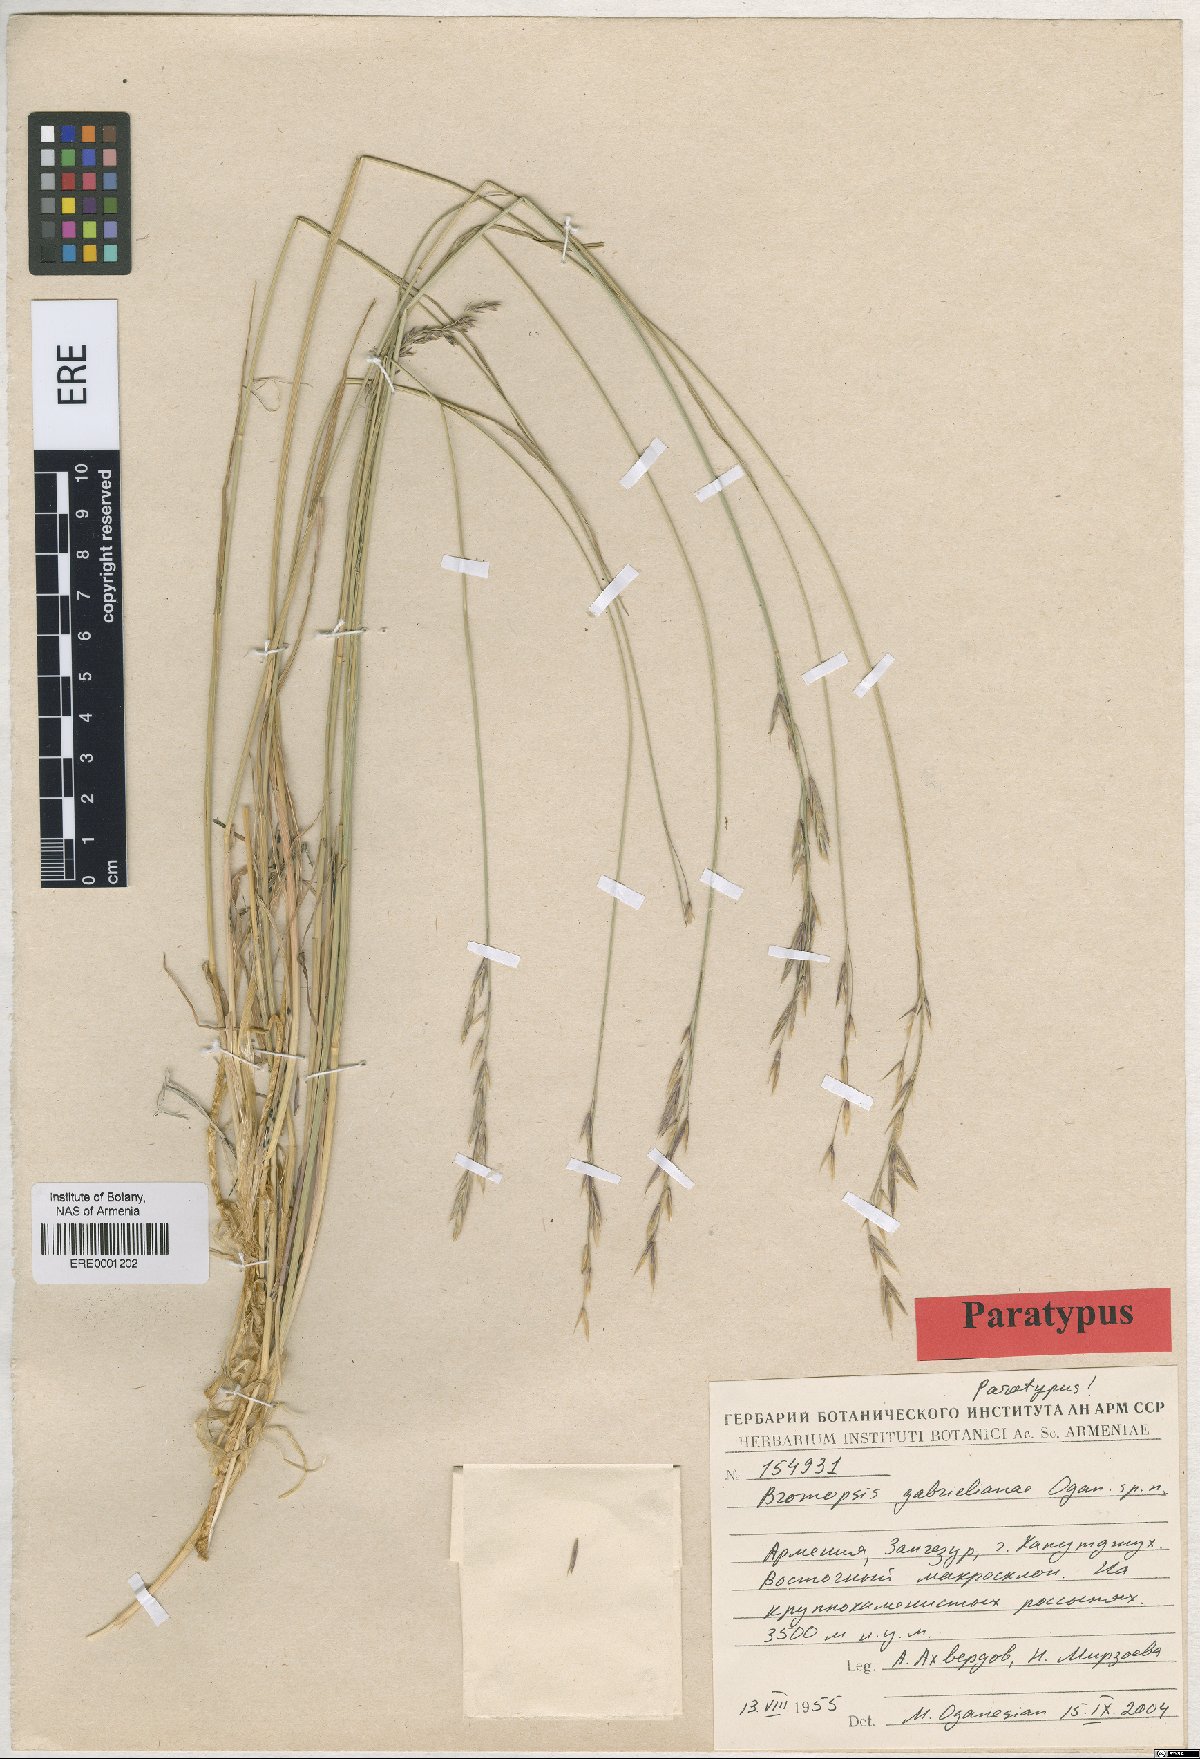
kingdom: Plantae
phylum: Tracheophyta
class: Liliopsida
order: Poales
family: Poaceae
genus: Bromus
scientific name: Bromus tomentosus
